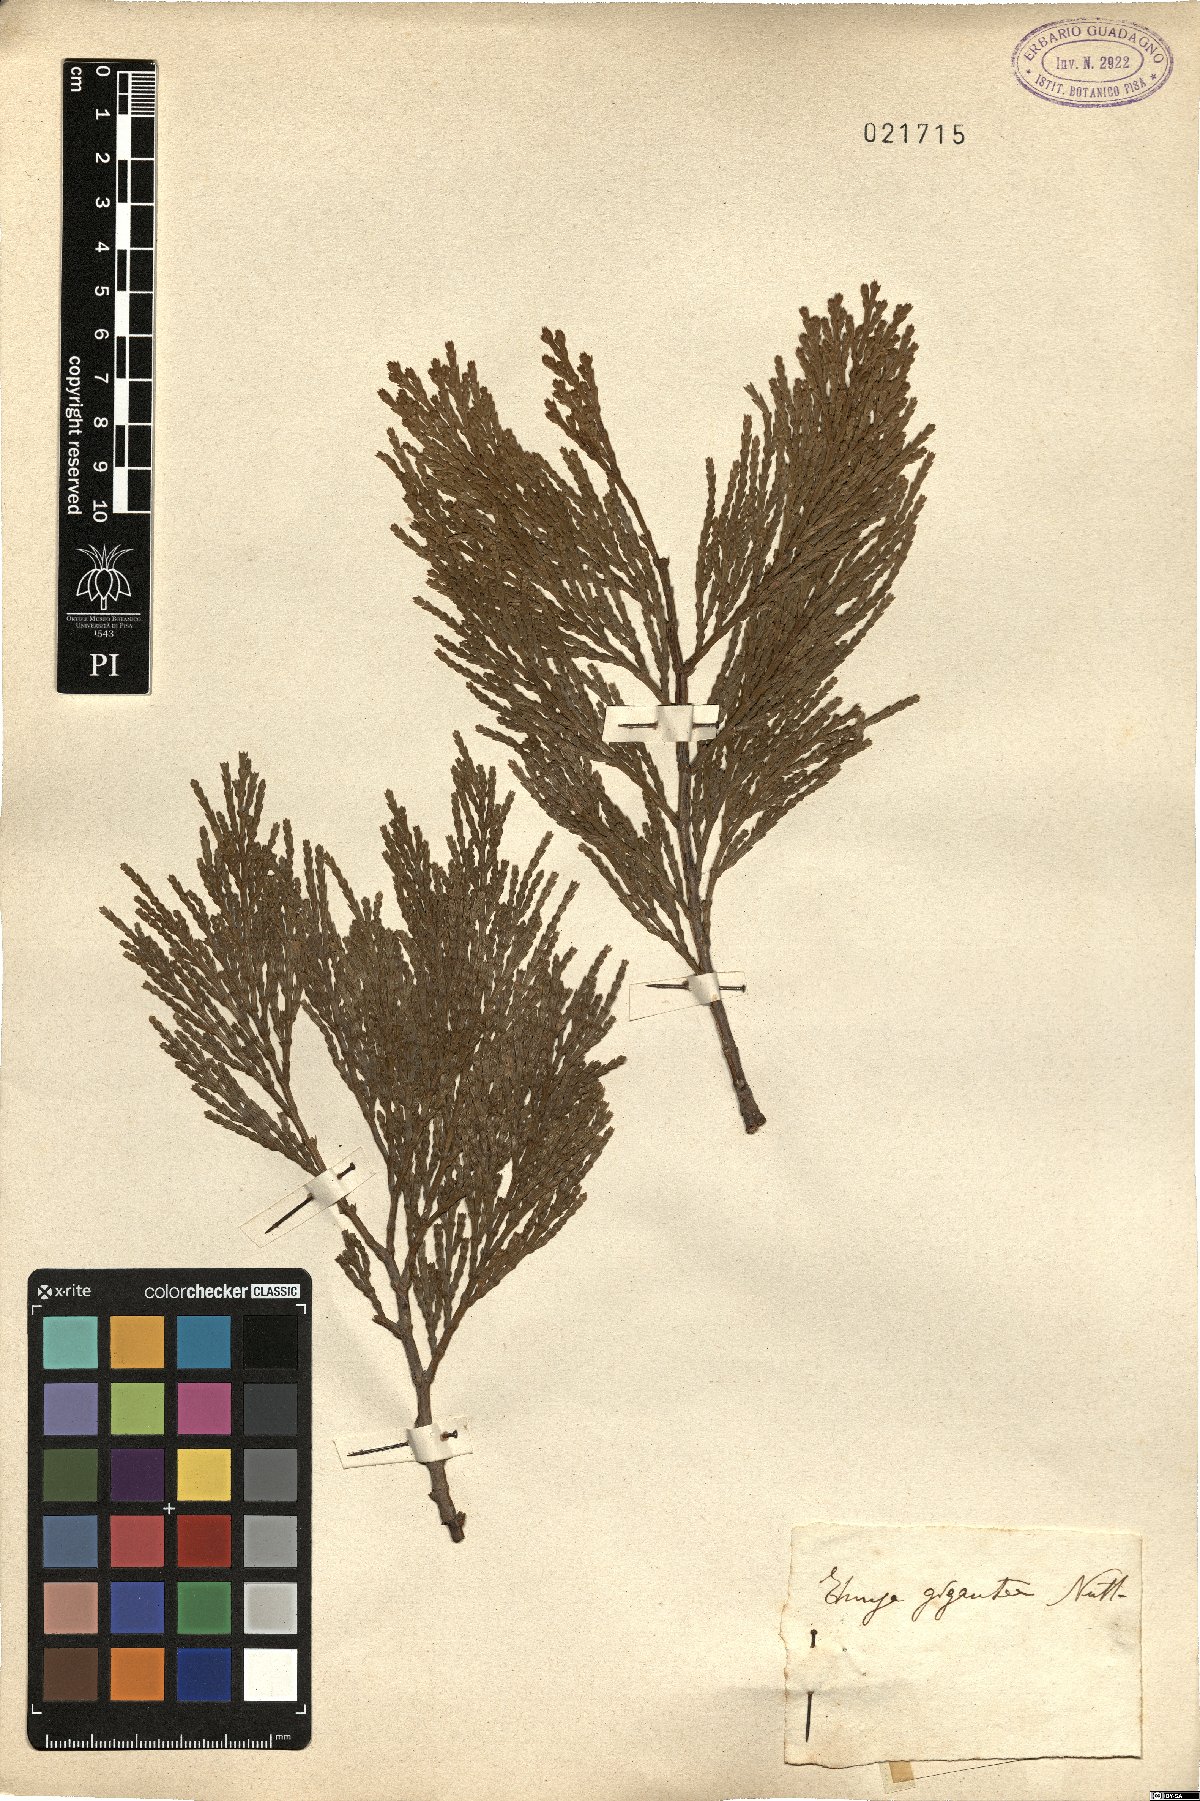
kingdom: Plantae
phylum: Tracheophyta
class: Pinopsida
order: Pinales
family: Cupressaceae
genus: Thuja
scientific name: Thuja
